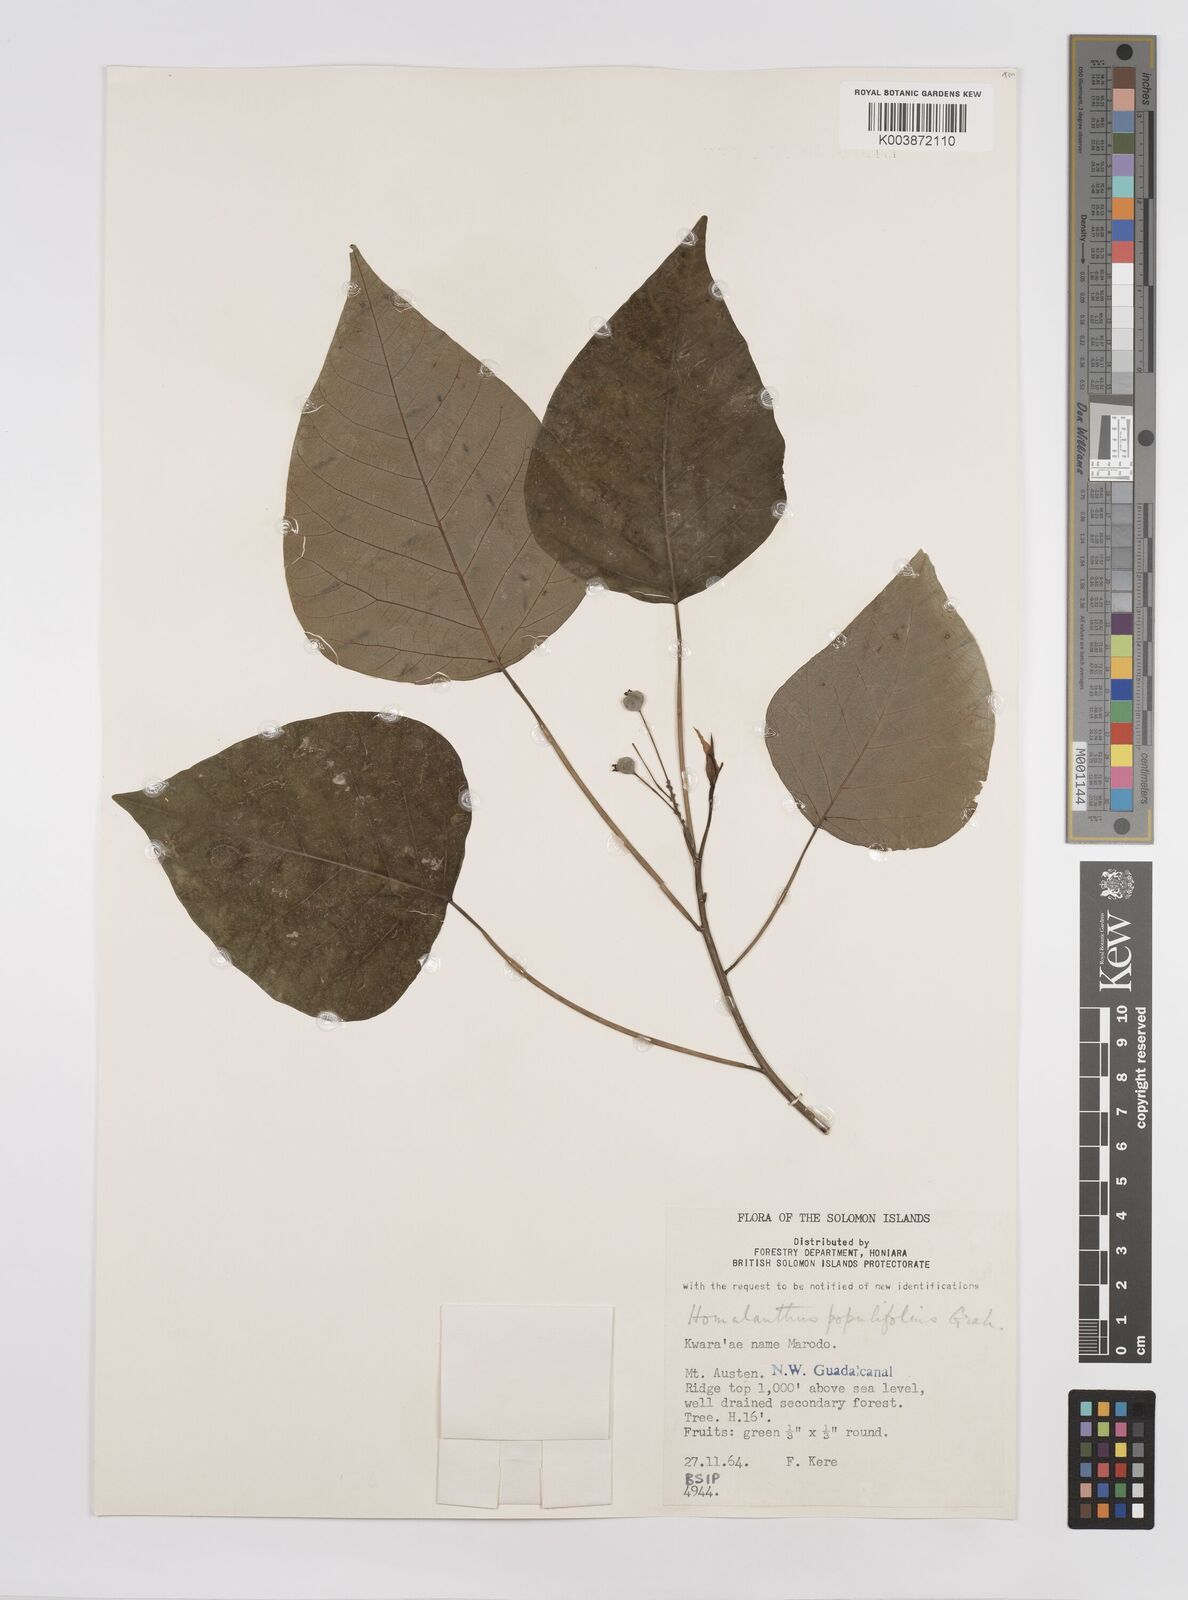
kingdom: Plantae
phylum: Tracheophyta
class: Magnoliopsida
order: Malpighiales
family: Euphorbiaceae
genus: Homalanthus
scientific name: Homalanthus populifolius
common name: Queensland poplar
